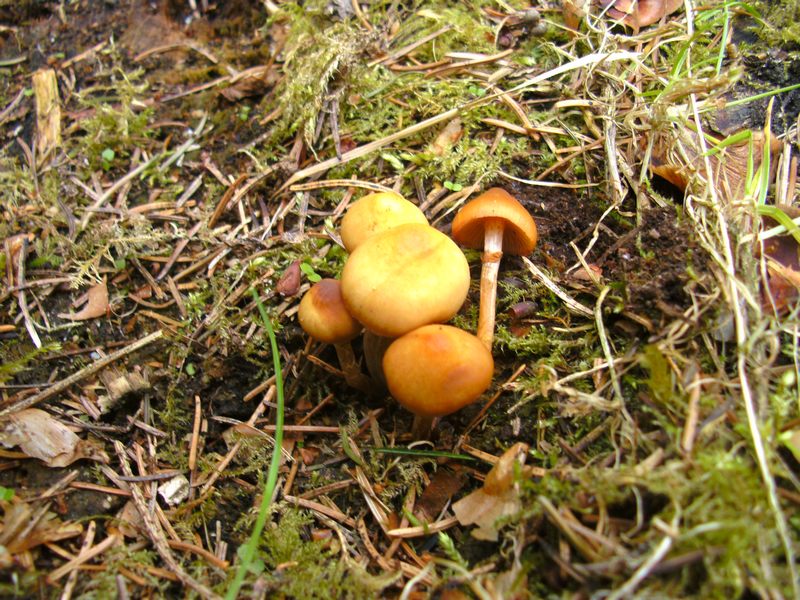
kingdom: Fungi
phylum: Basidiomycota
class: Agaricomycetes
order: Agaricales
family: Hymenogastraceae
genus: Galerina
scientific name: Galerina marginata
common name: randbæltet hjelmhat
